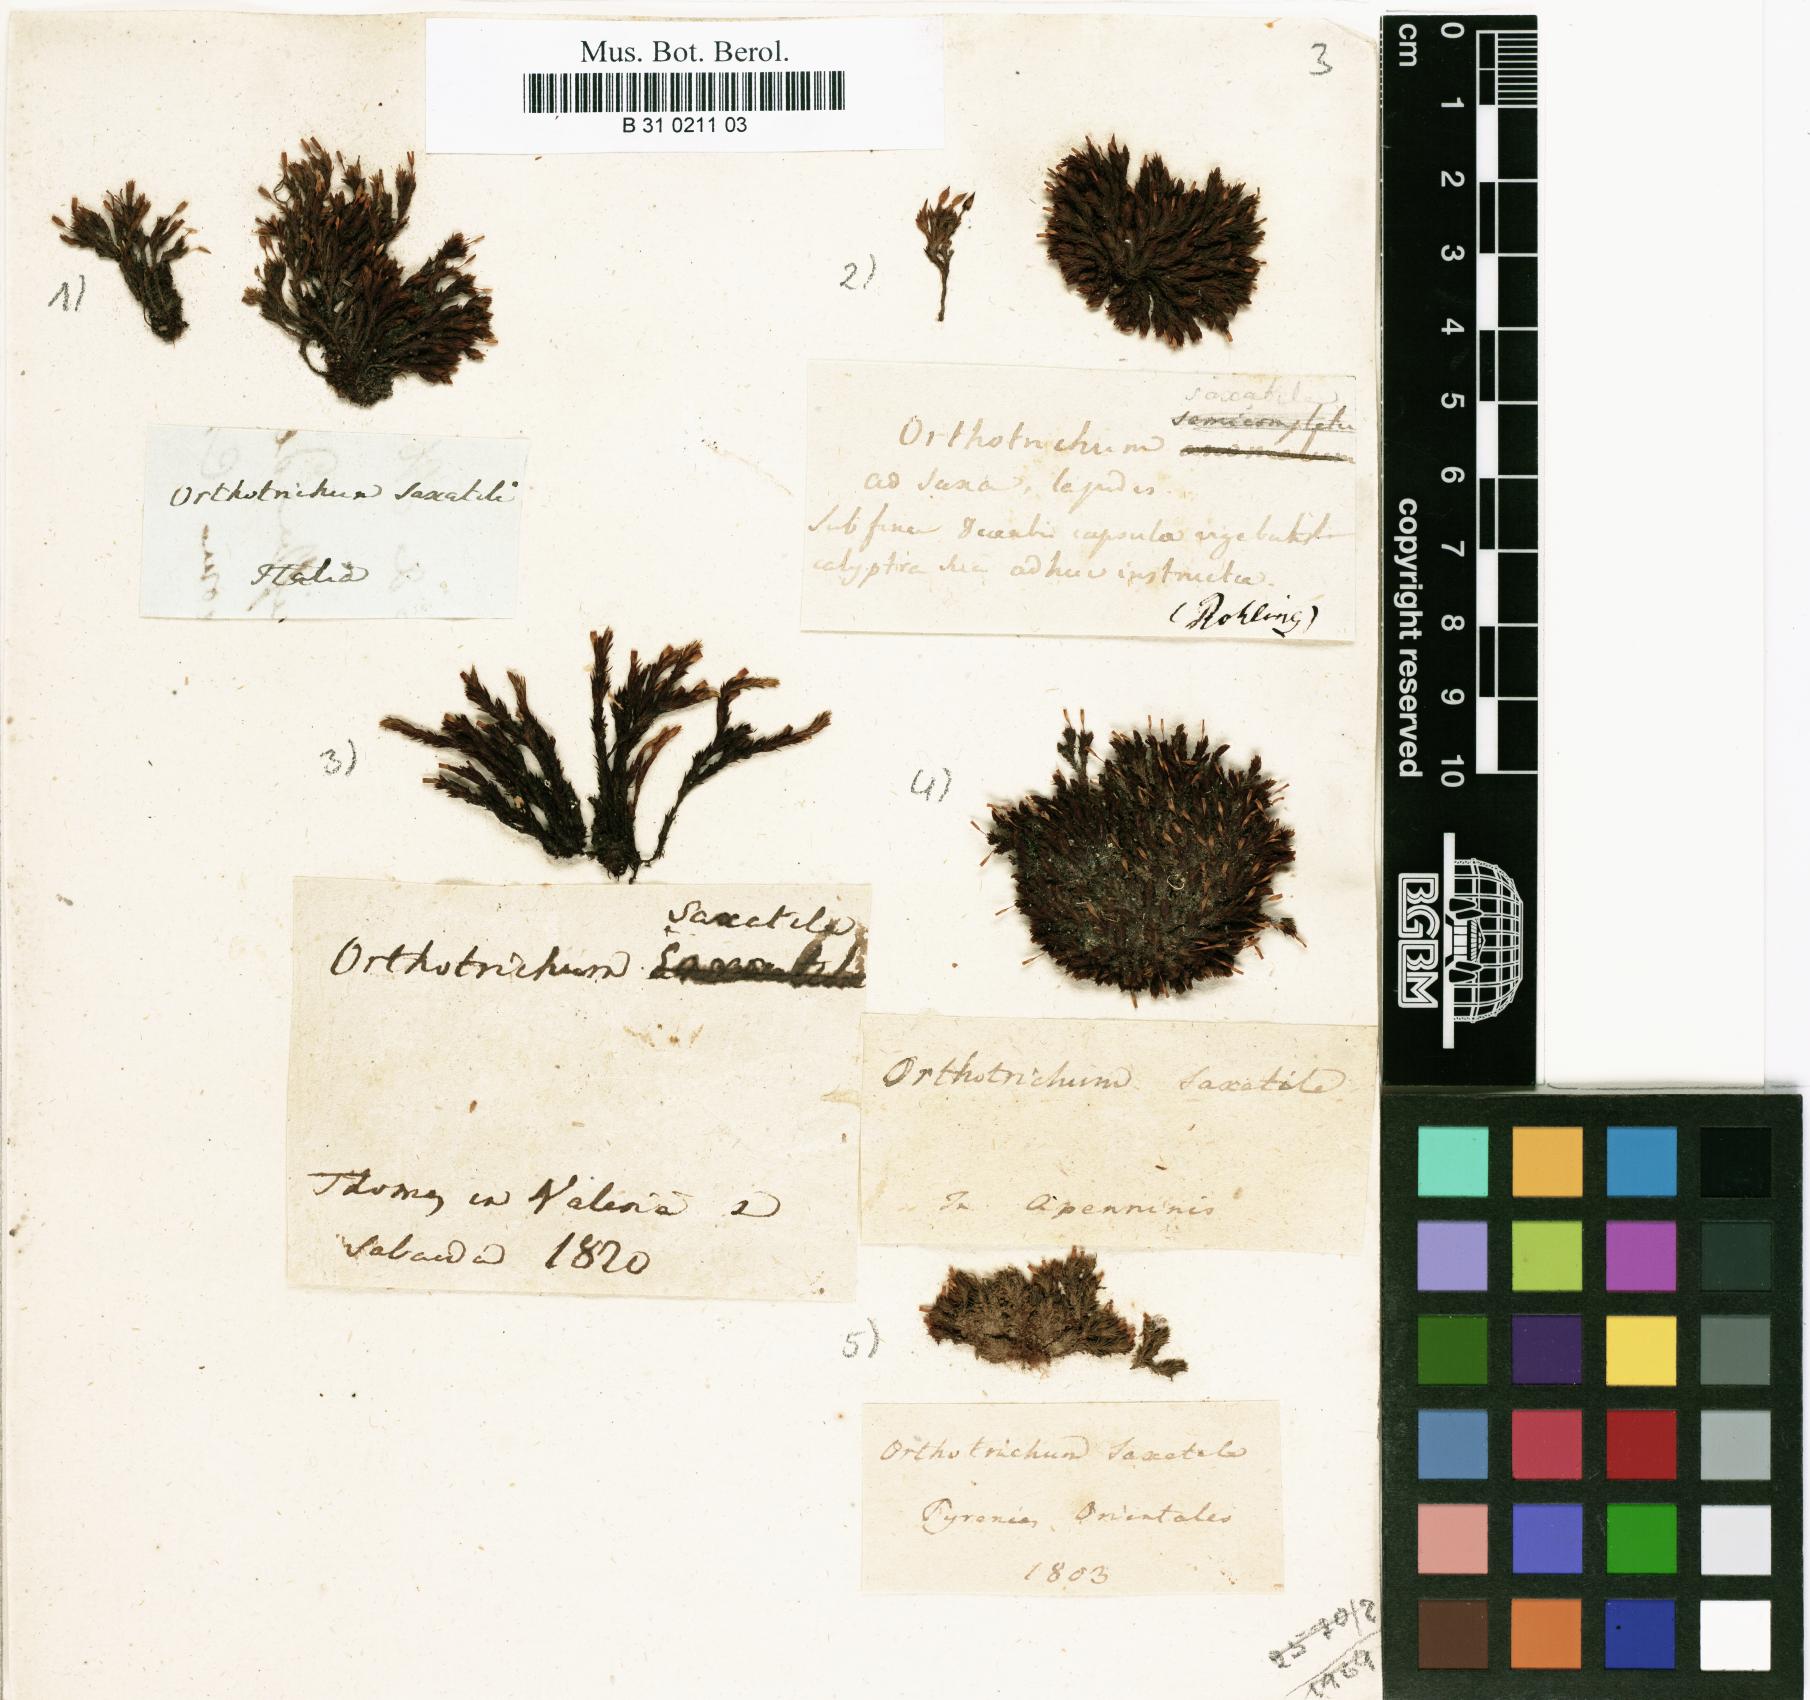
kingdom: Plantae
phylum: Bryophyta
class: Bryopsida
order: Orthotrichales
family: Orthotrichaceae
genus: Orthotrichum
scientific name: Orthotrichum anomalum
